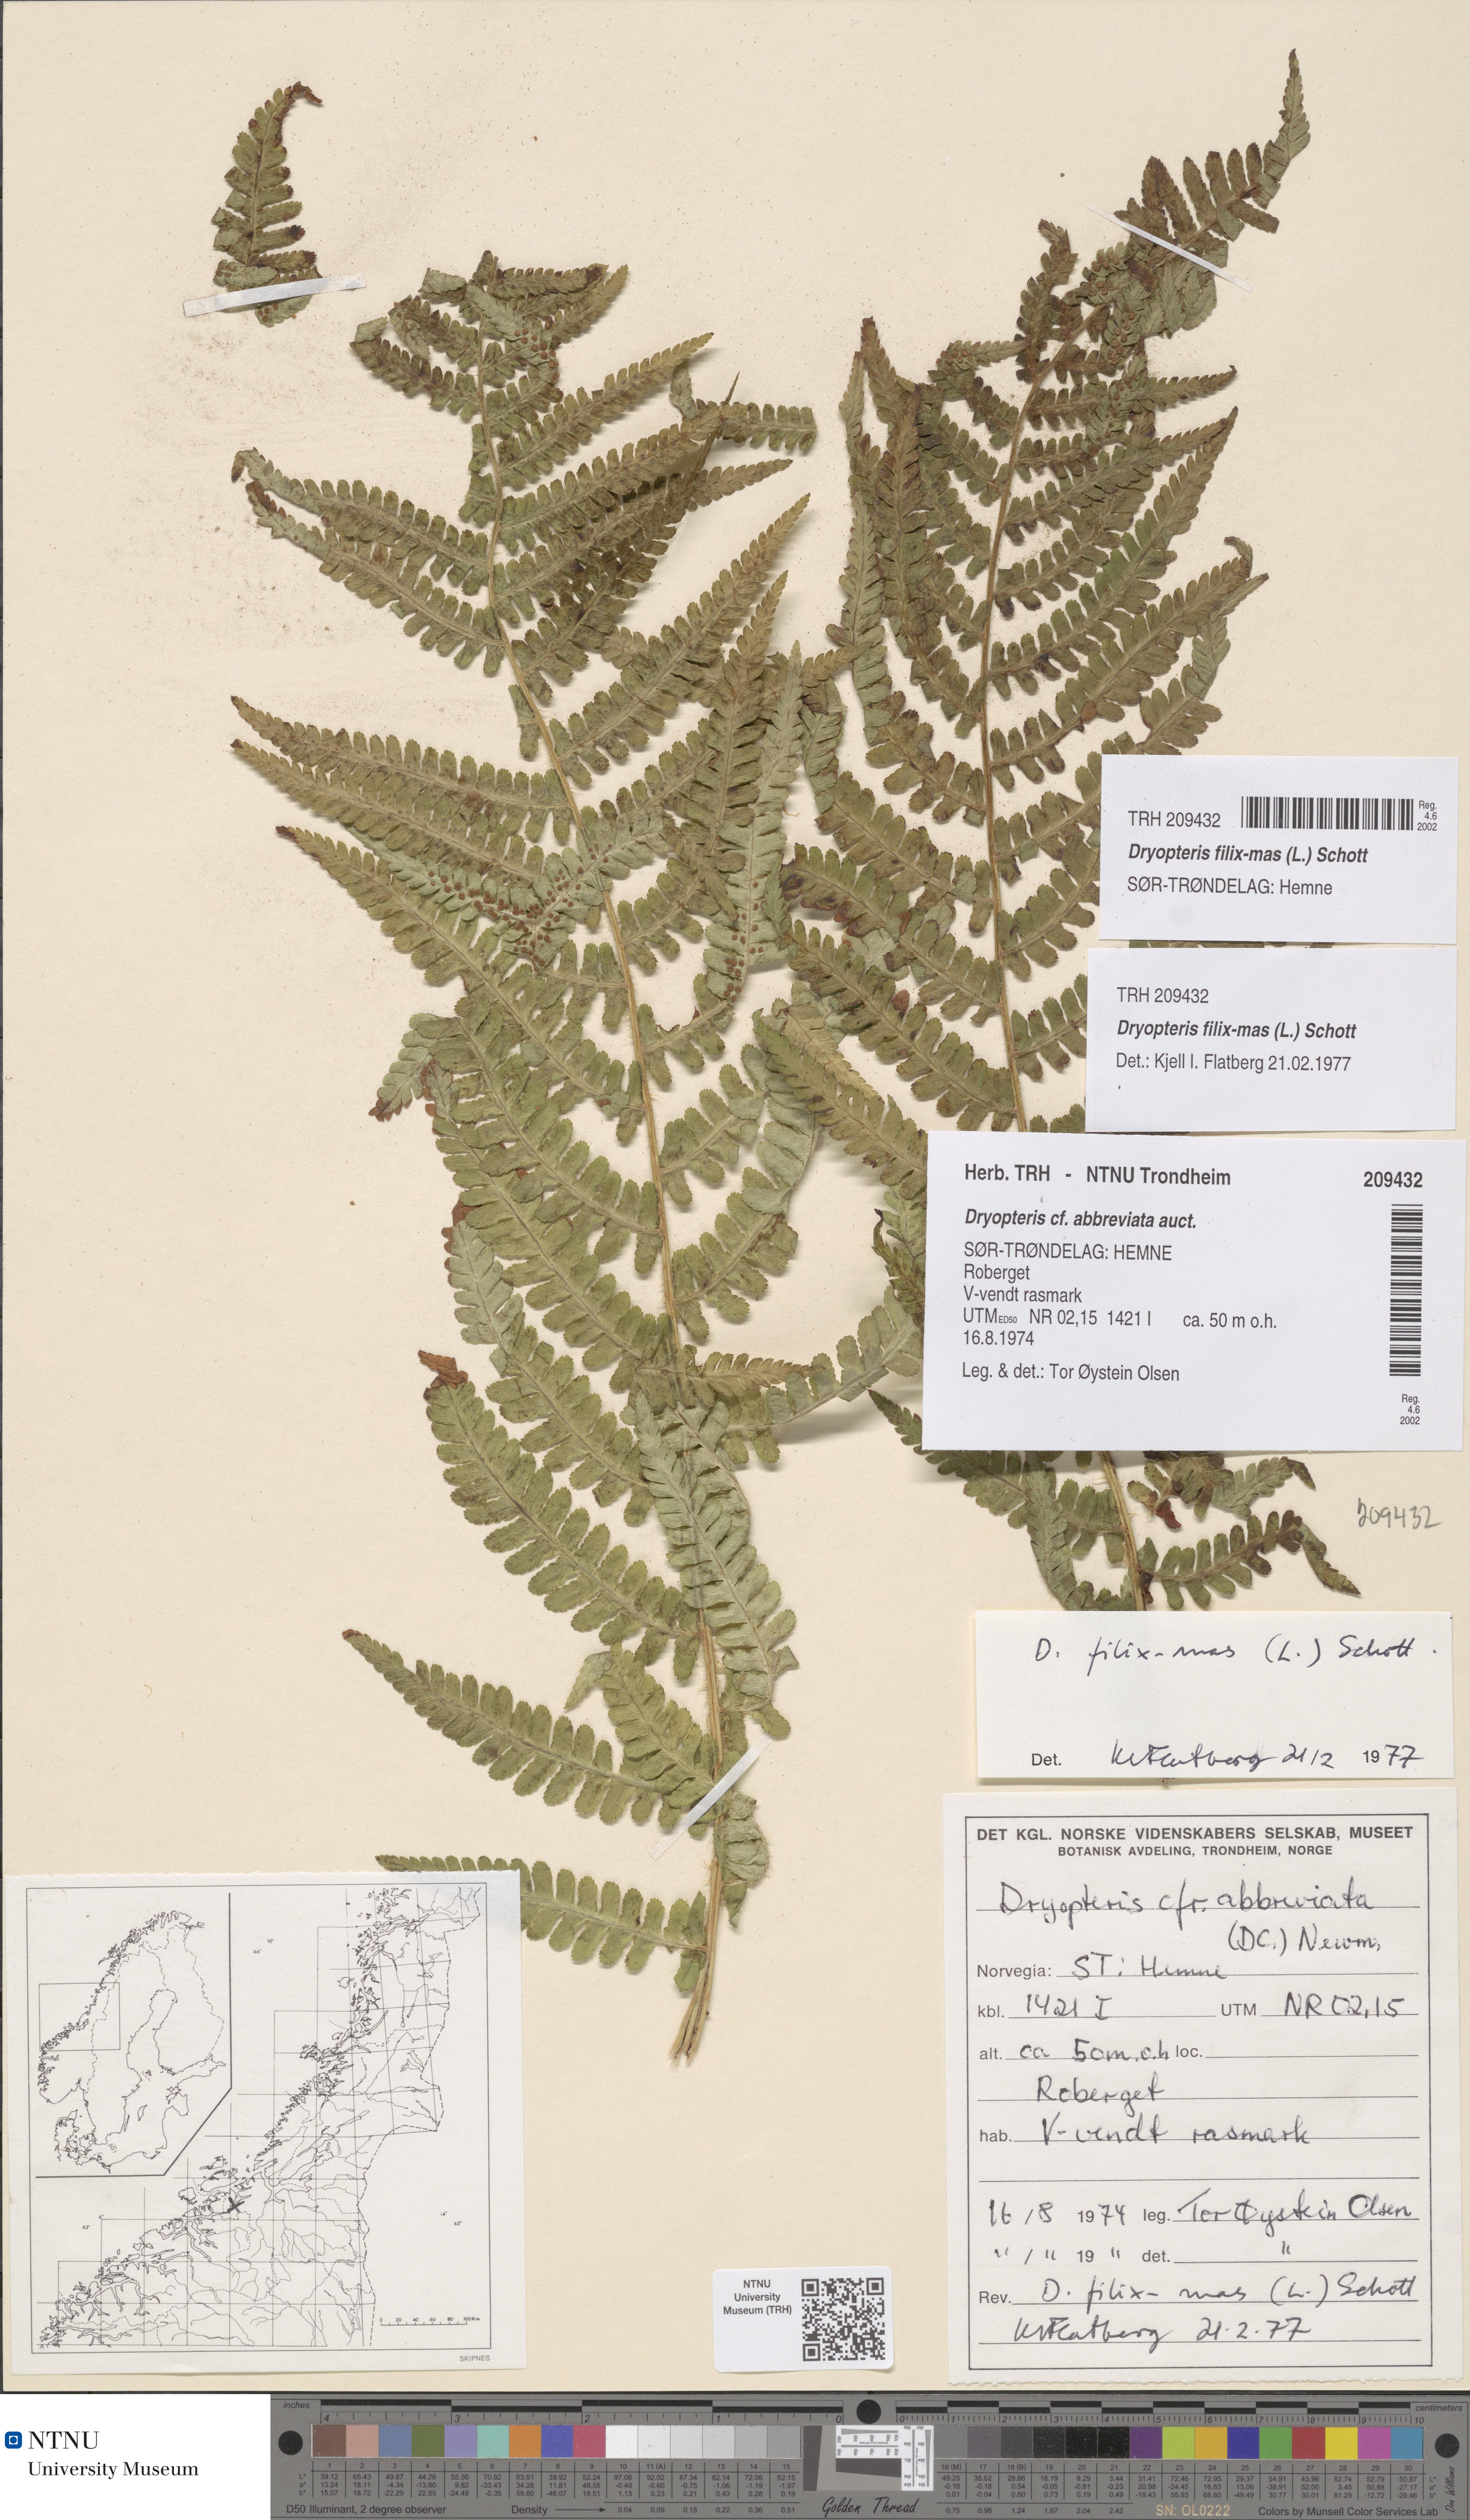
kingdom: Plantae
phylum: Tracheophyta
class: Polypodiopsida
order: Polypodiales
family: Dryopteridaceae
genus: Dryopteris
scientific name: Dryopteris filix-mas
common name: Male fern
